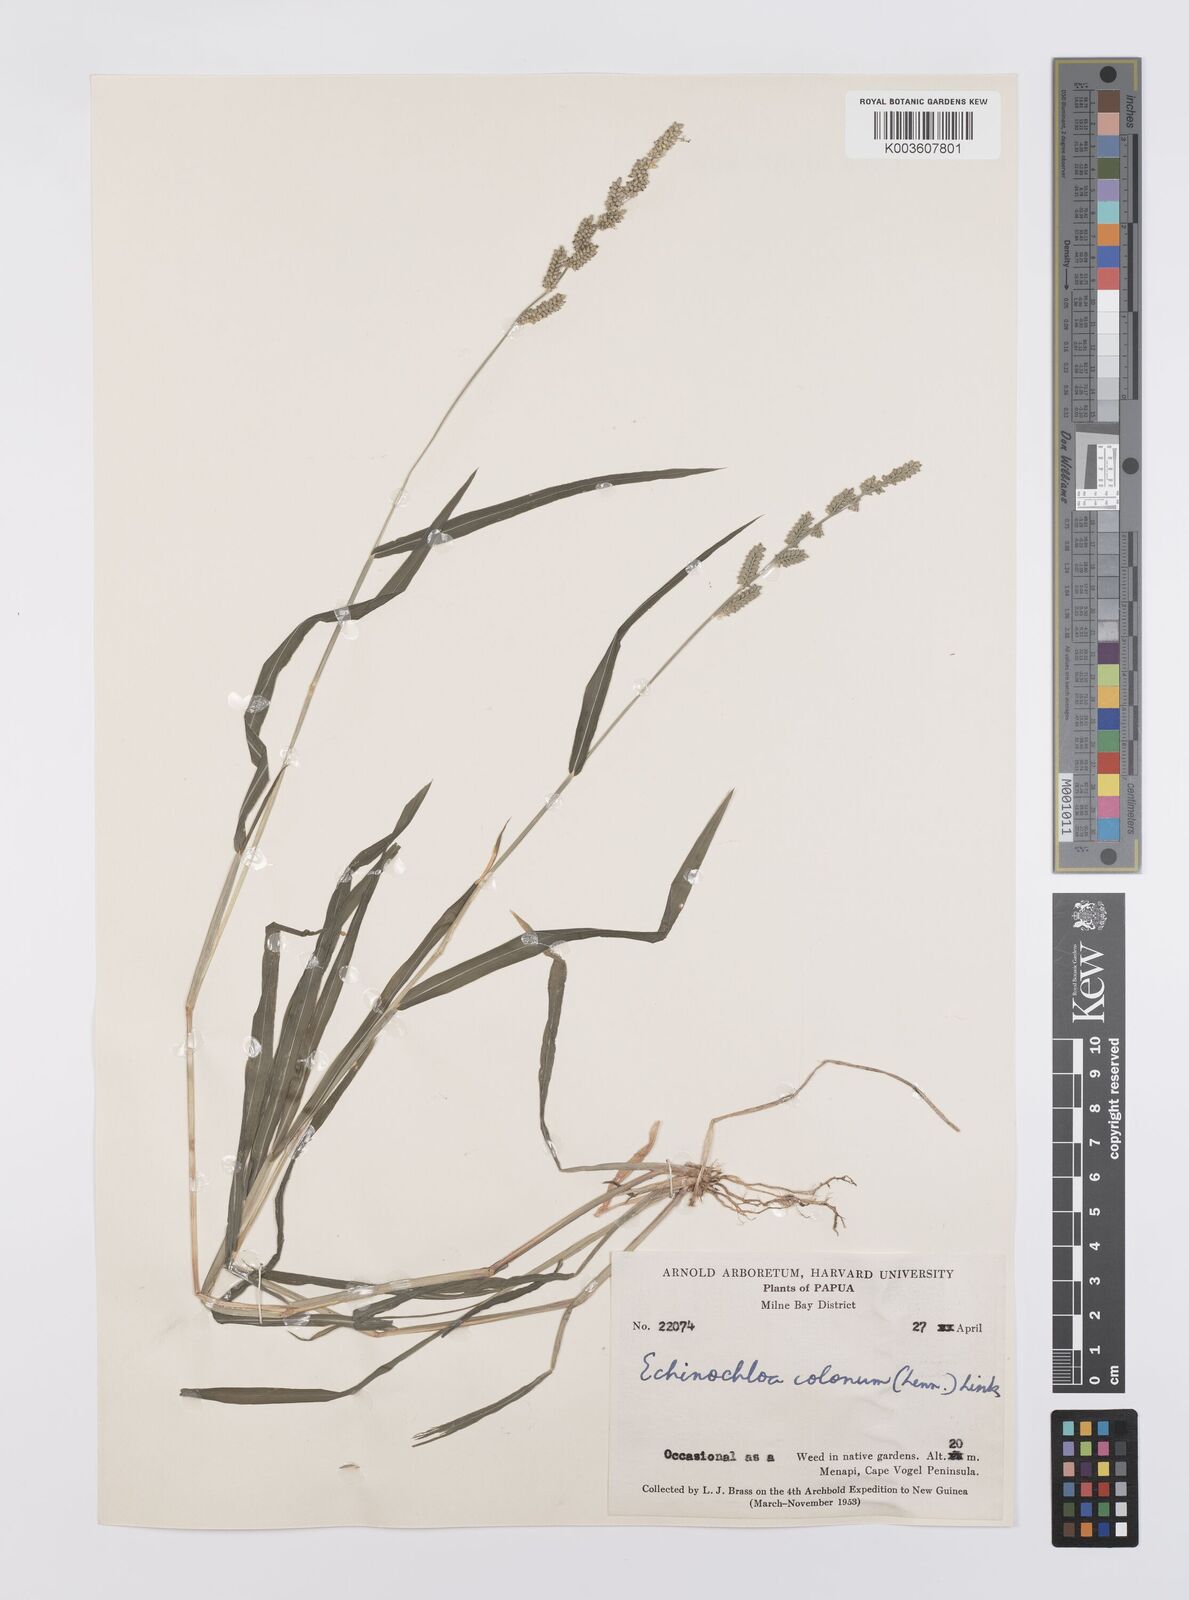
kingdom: Plantae
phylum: Tracheophyta
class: Liliopsida
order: Poales
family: Poaceae
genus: Echinochloa
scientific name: Echinochloa colonum
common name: Jungle rice
